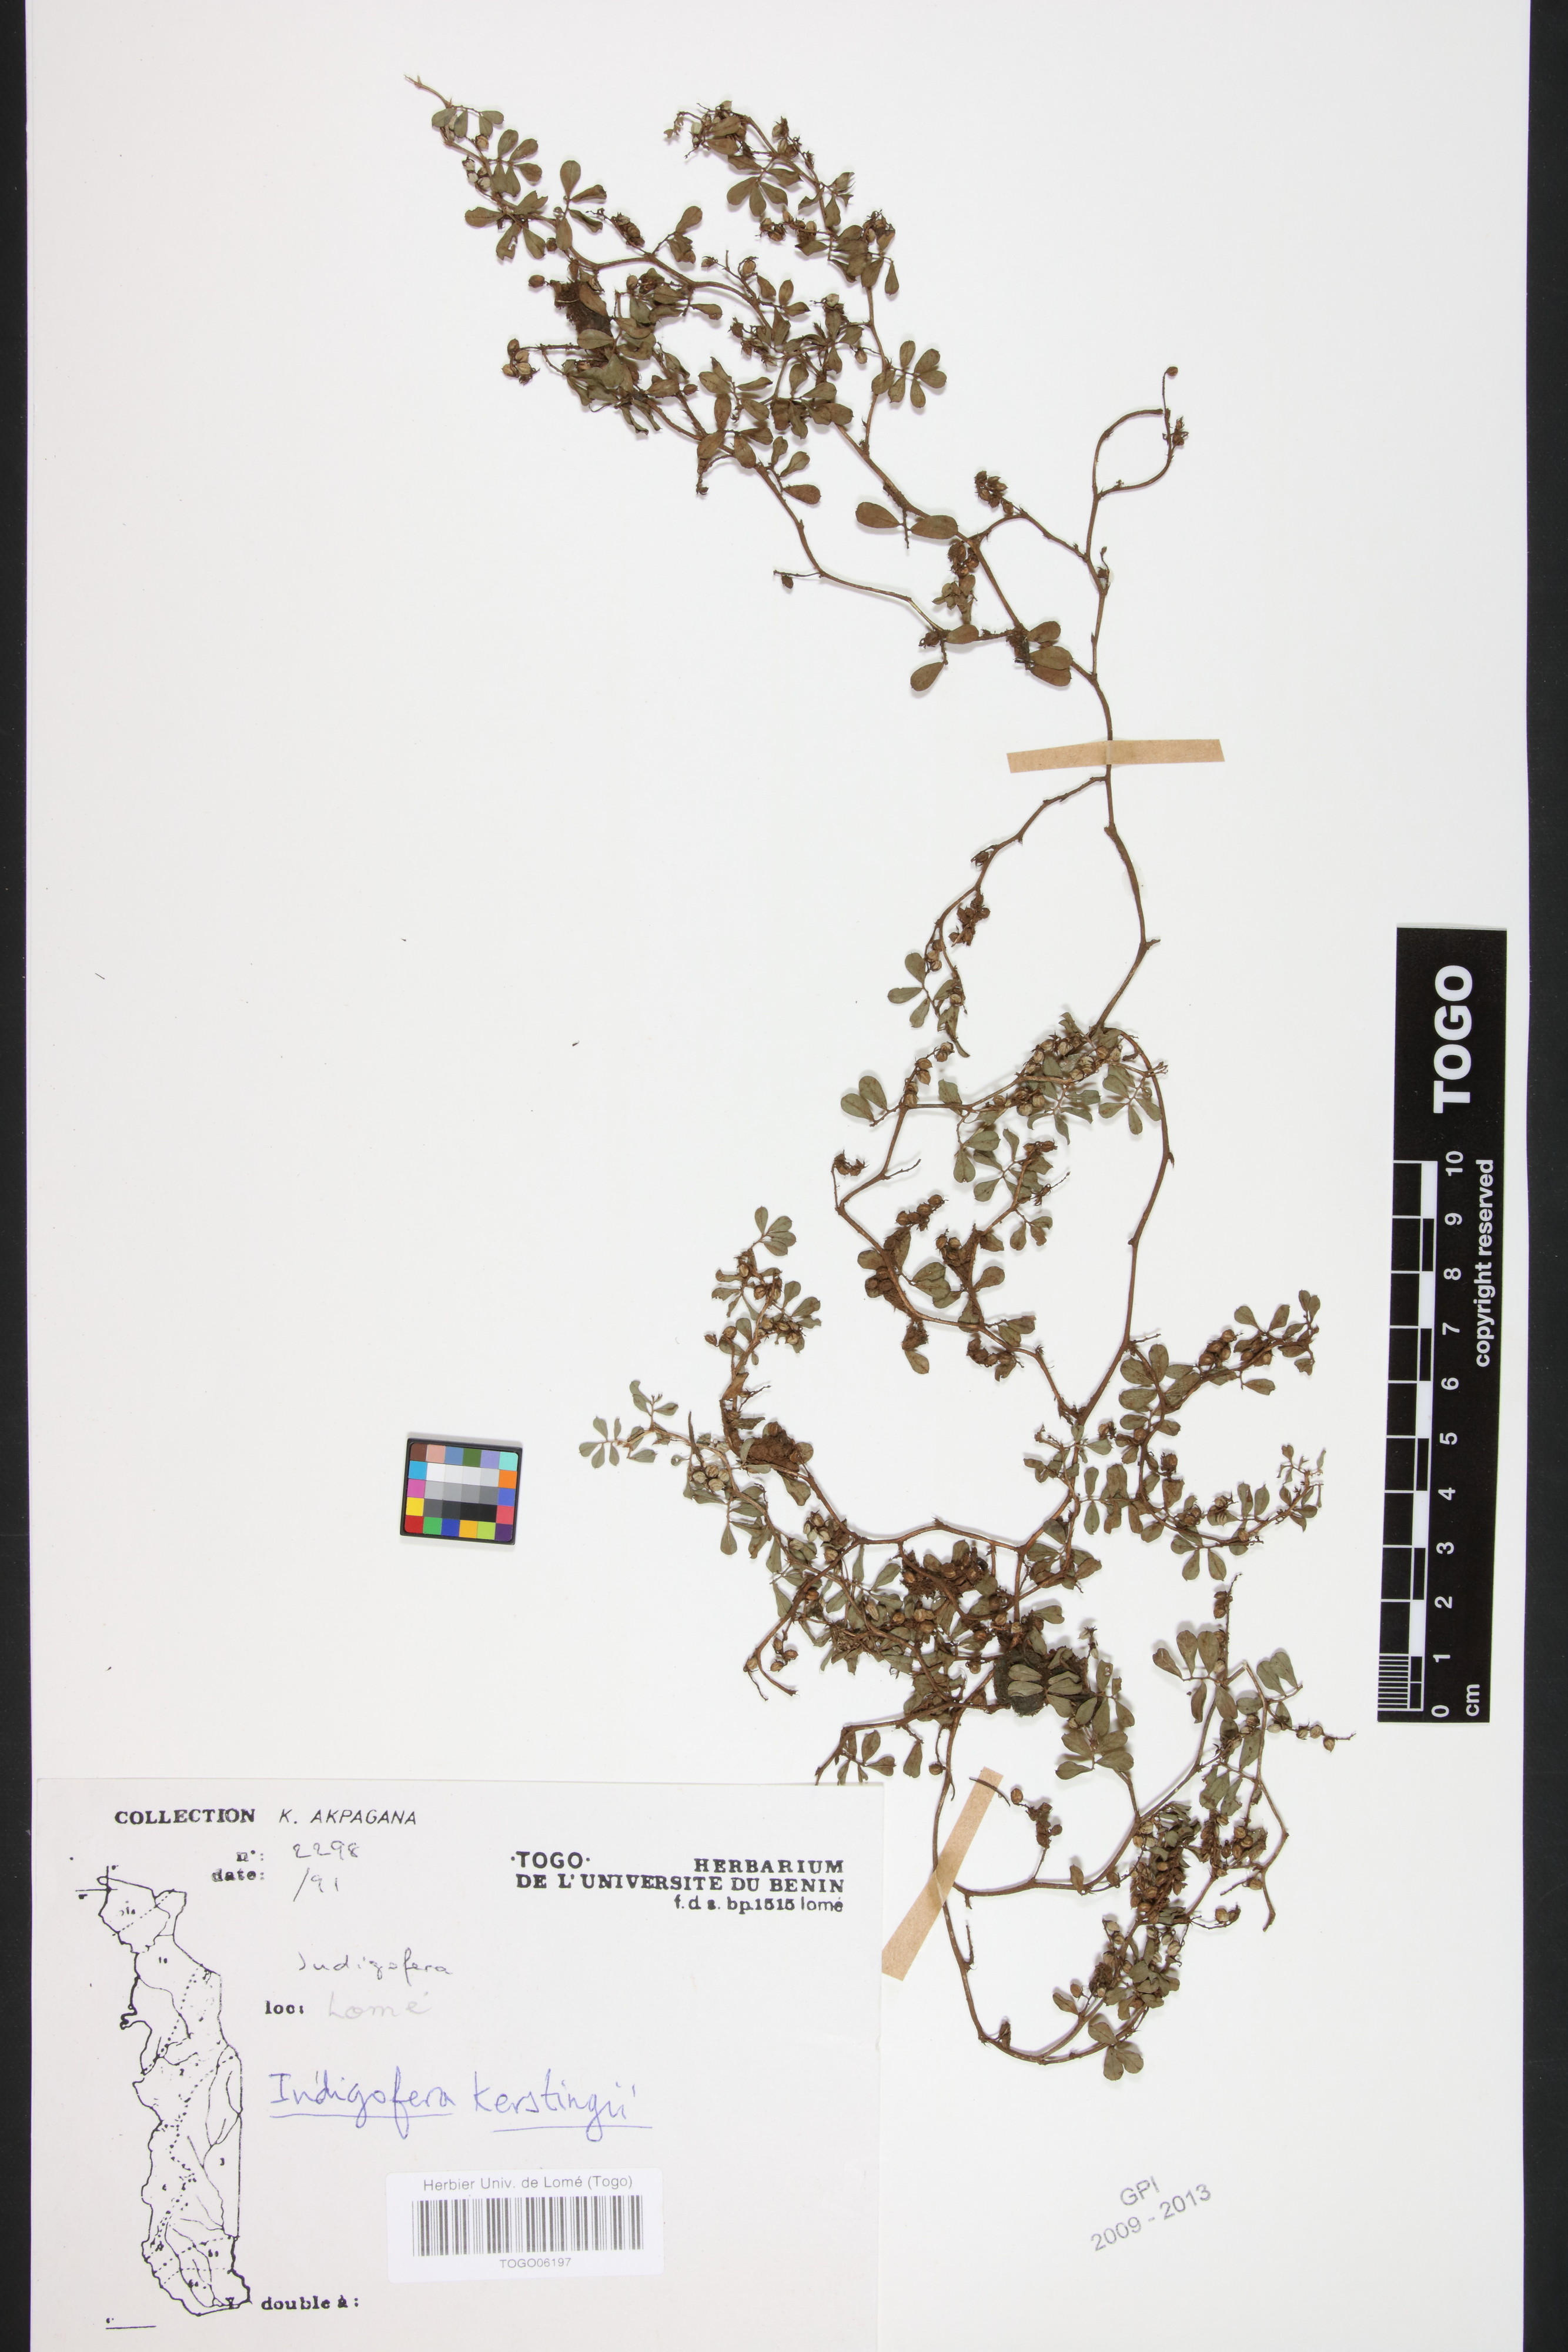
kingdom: Plantae
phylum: Tracheophyta
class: Magnoliopsida
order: Fabales
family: Fabaceae
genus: Indigofera
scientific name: Indigofera kerstingii
